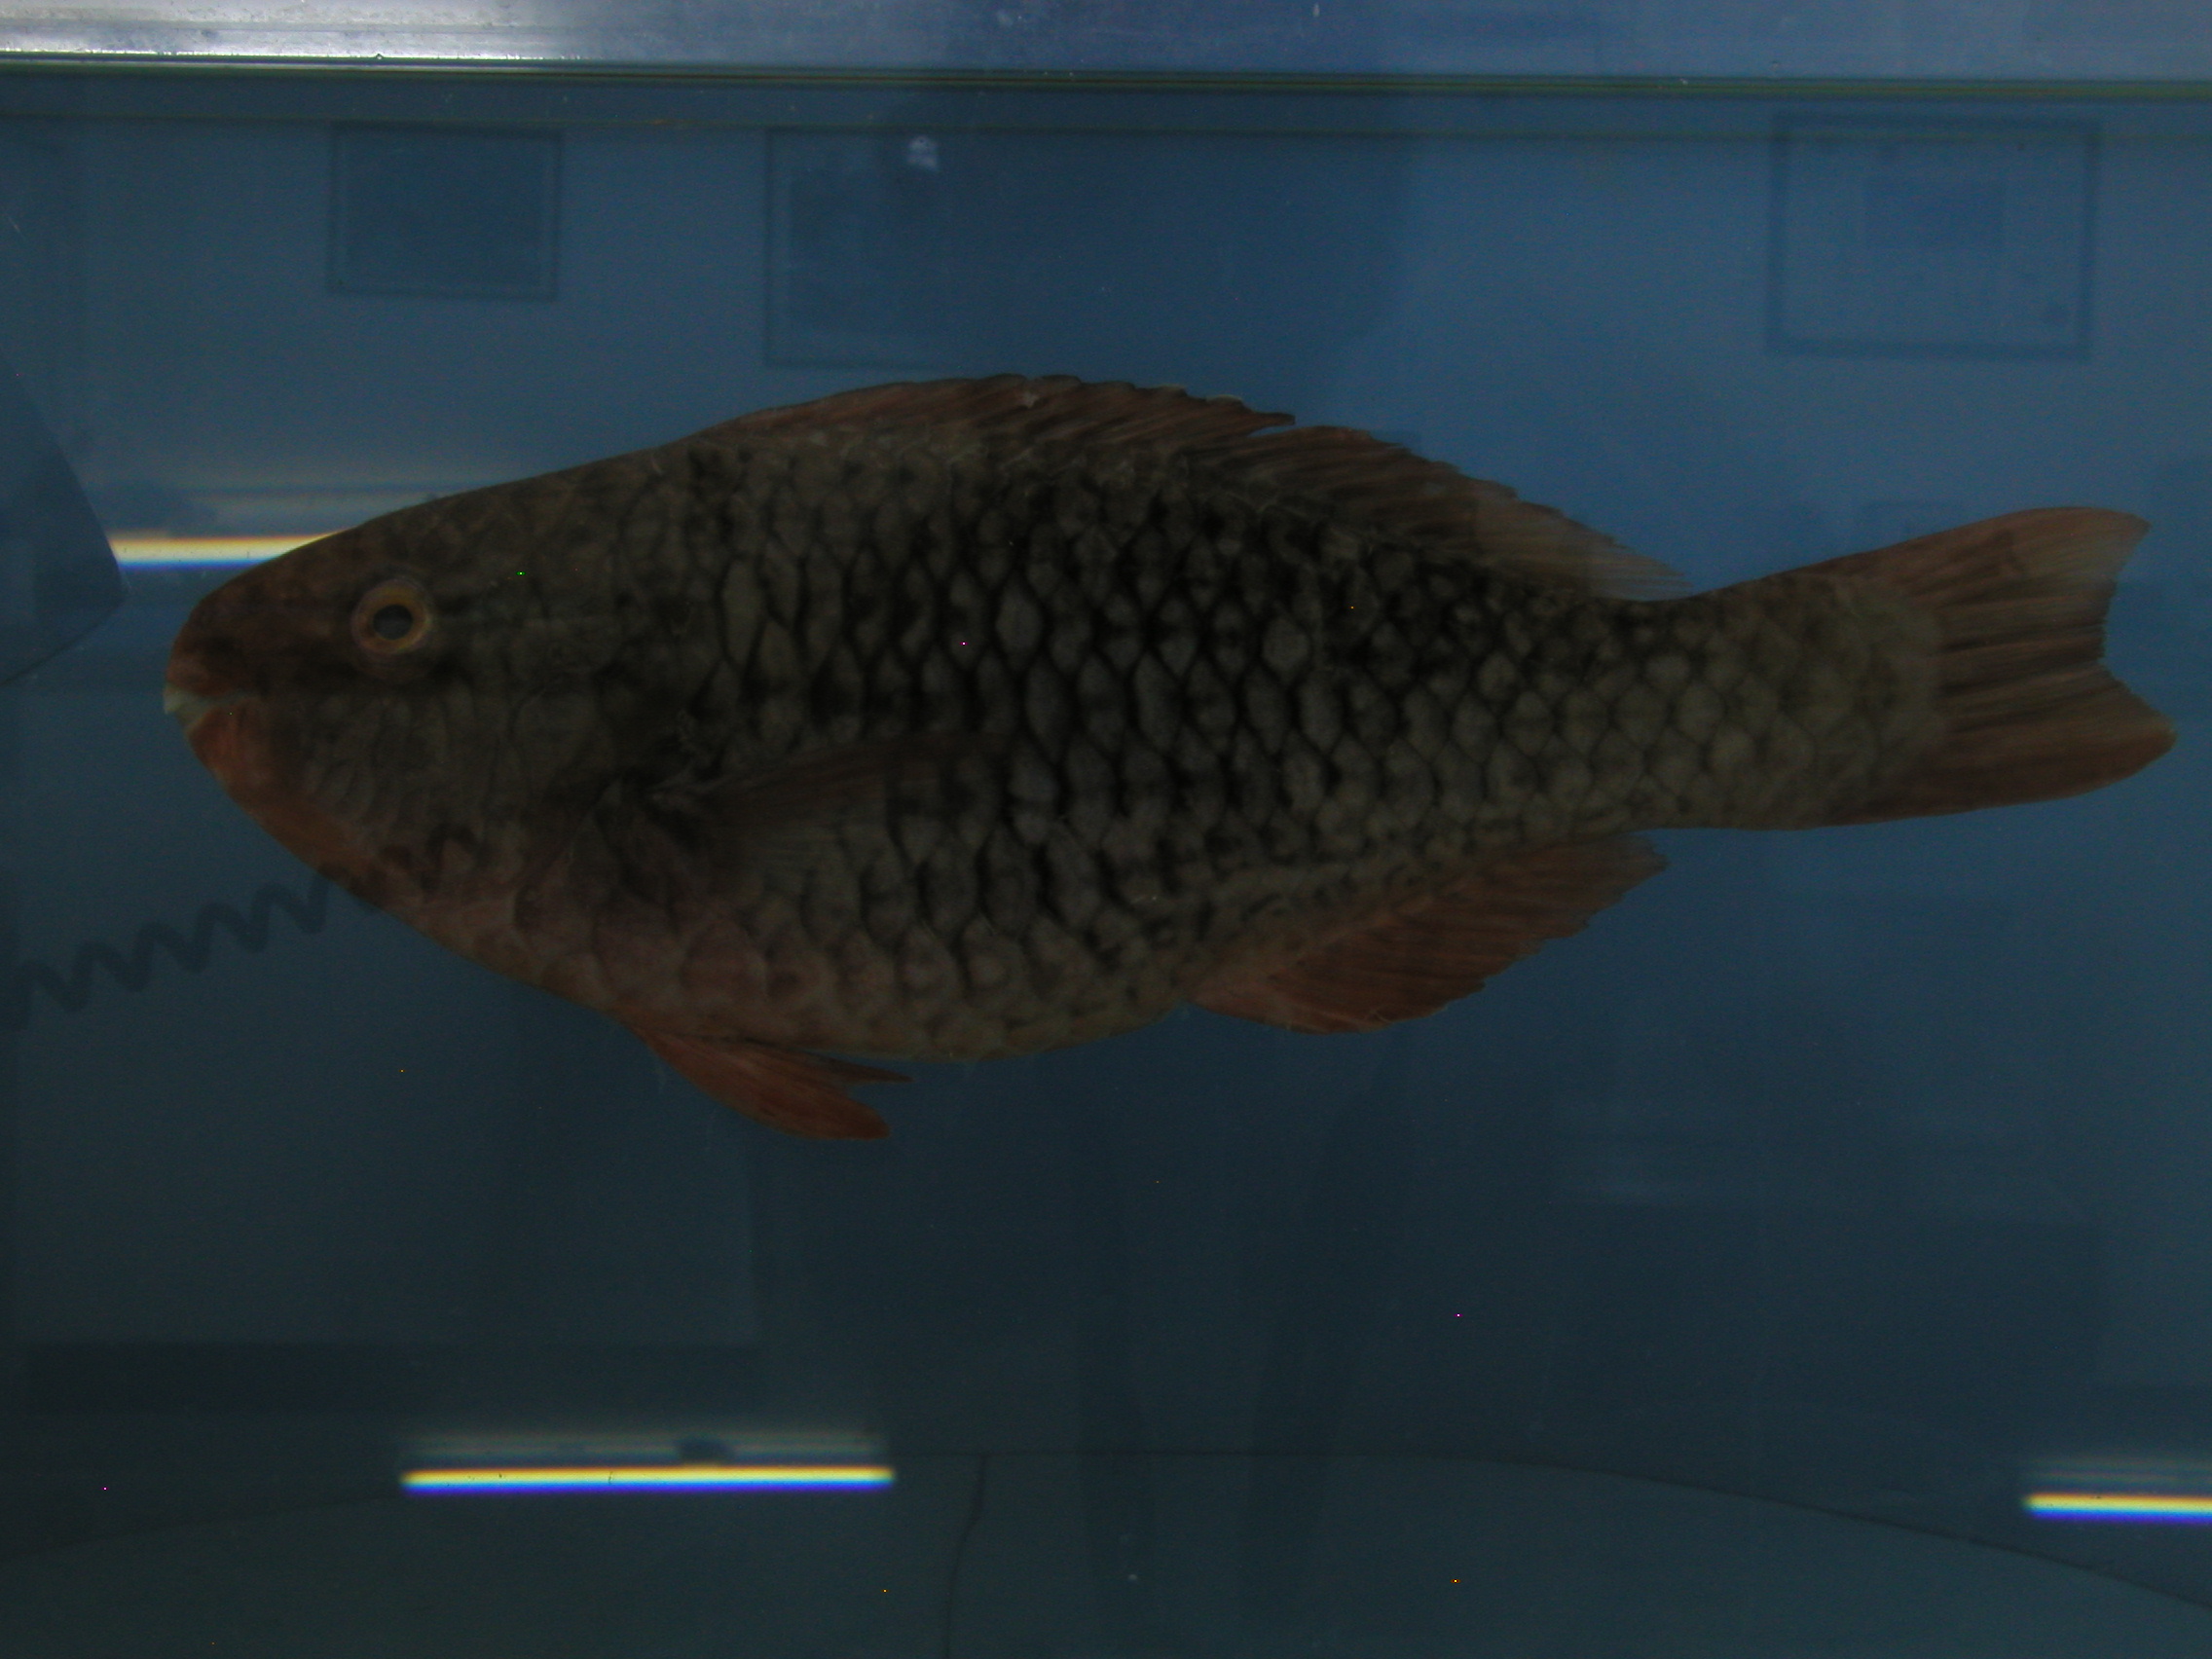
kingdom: Animalia
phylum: Chordata
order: Perciformes
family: Scaridae
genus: Scarus
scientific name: Scarus rubroviolaceus
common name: Ember parrotfish
